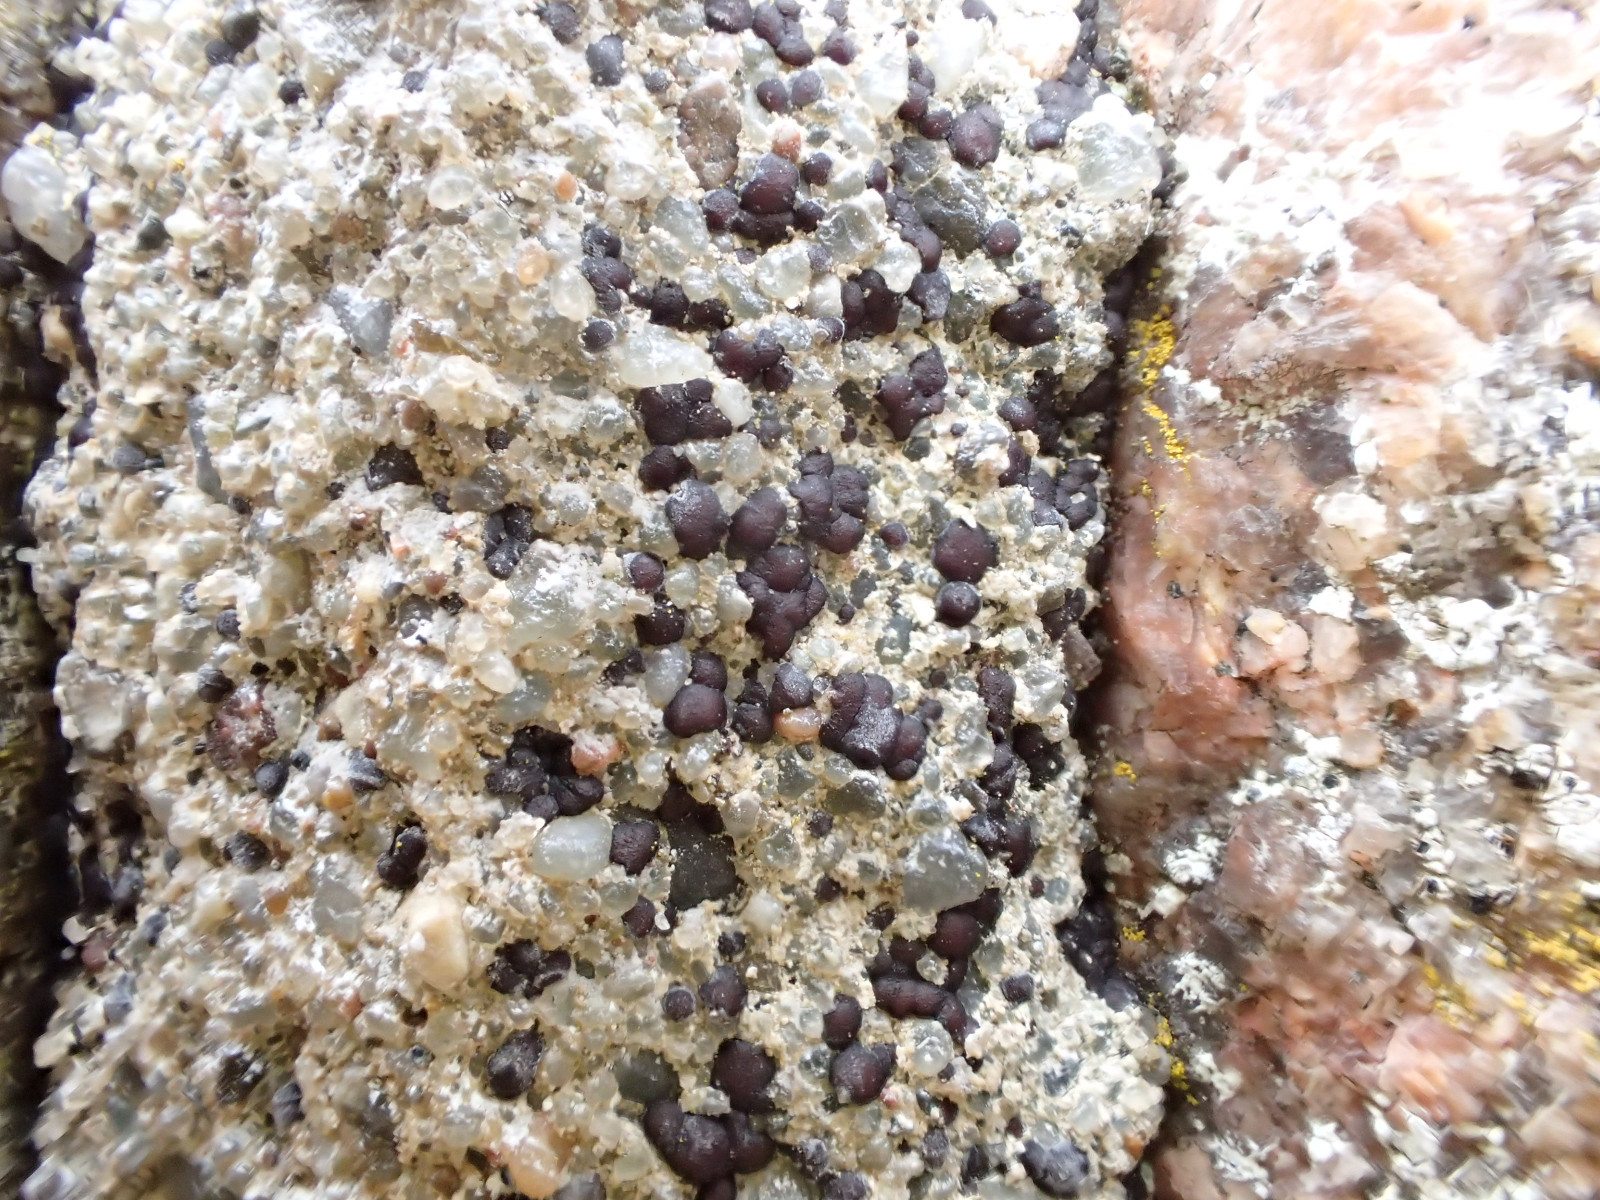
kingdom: Fungi
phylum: Ascomycota
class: Lecanoromycetes
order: Acarosporales
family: Acarosporaceae
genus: Sarcogyne
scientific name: Sarcogyne regularis
